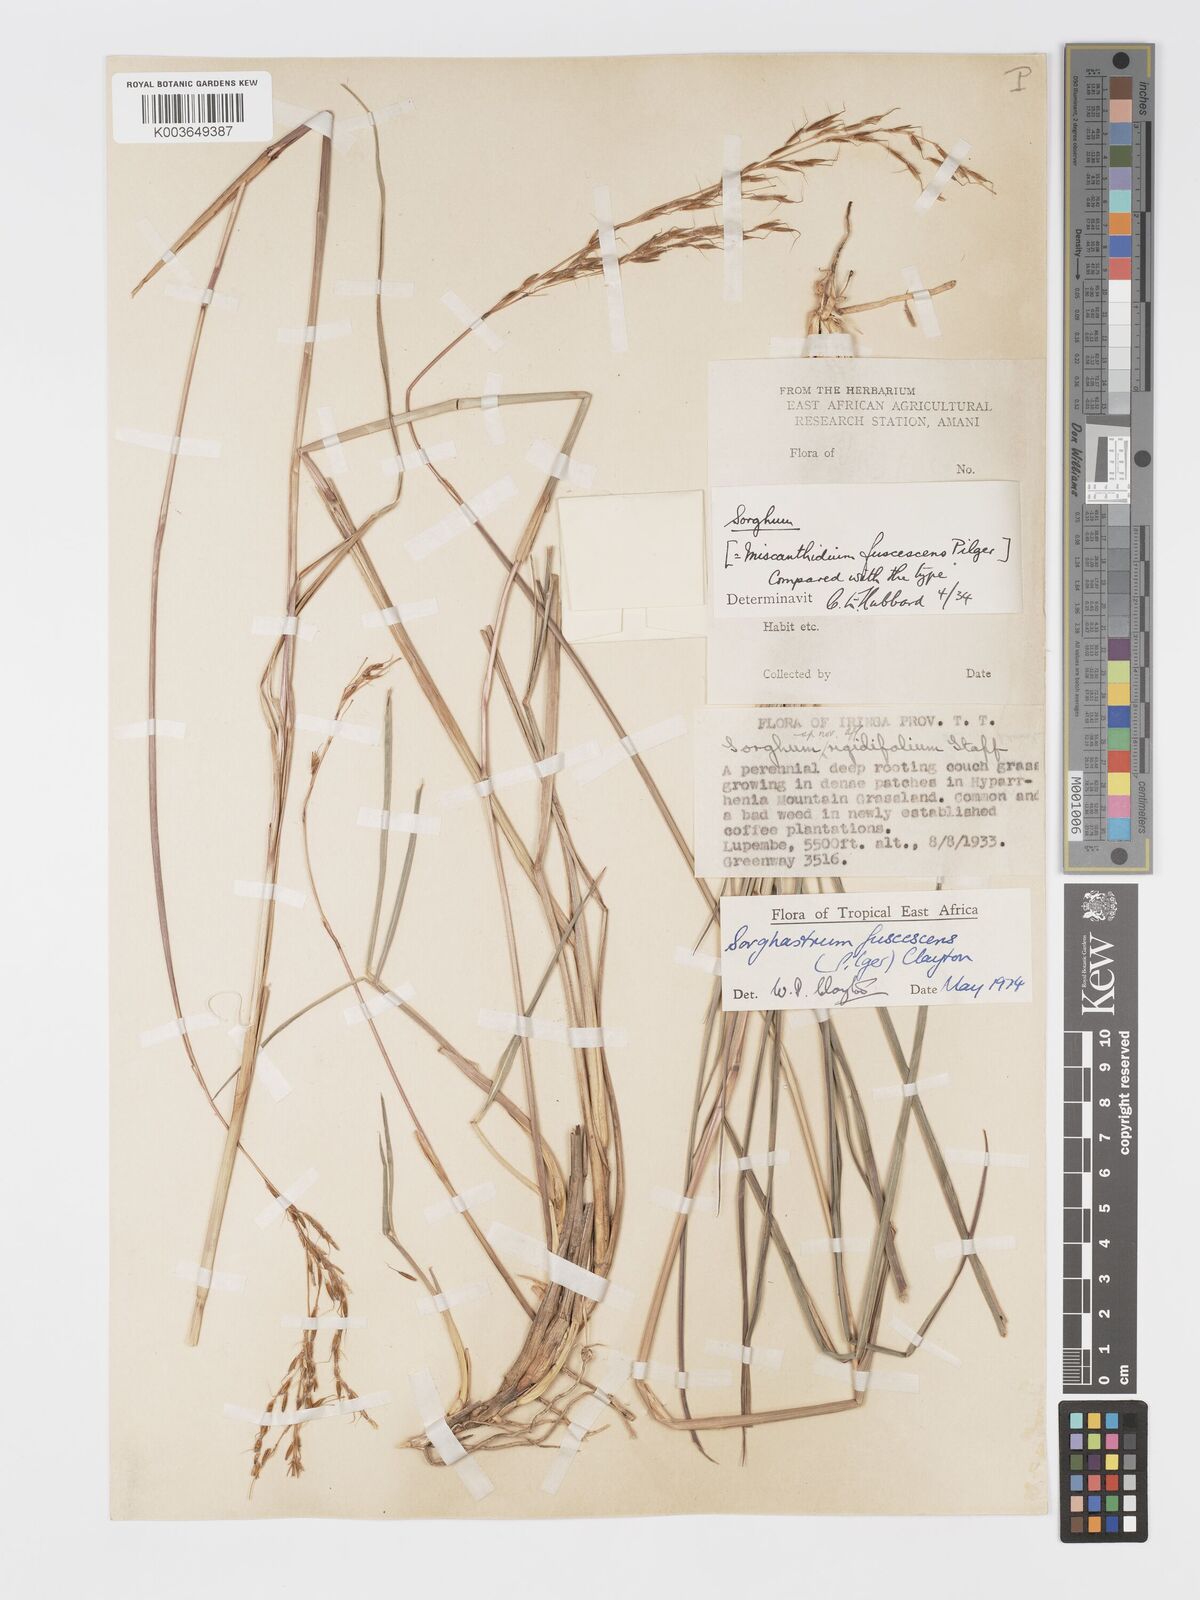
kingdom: Plantae
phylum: Tracheophyta
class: Liliopsida
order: Poales
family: Poaceae
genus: Sorghastrum
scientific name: Sorghastrum fuscescens
